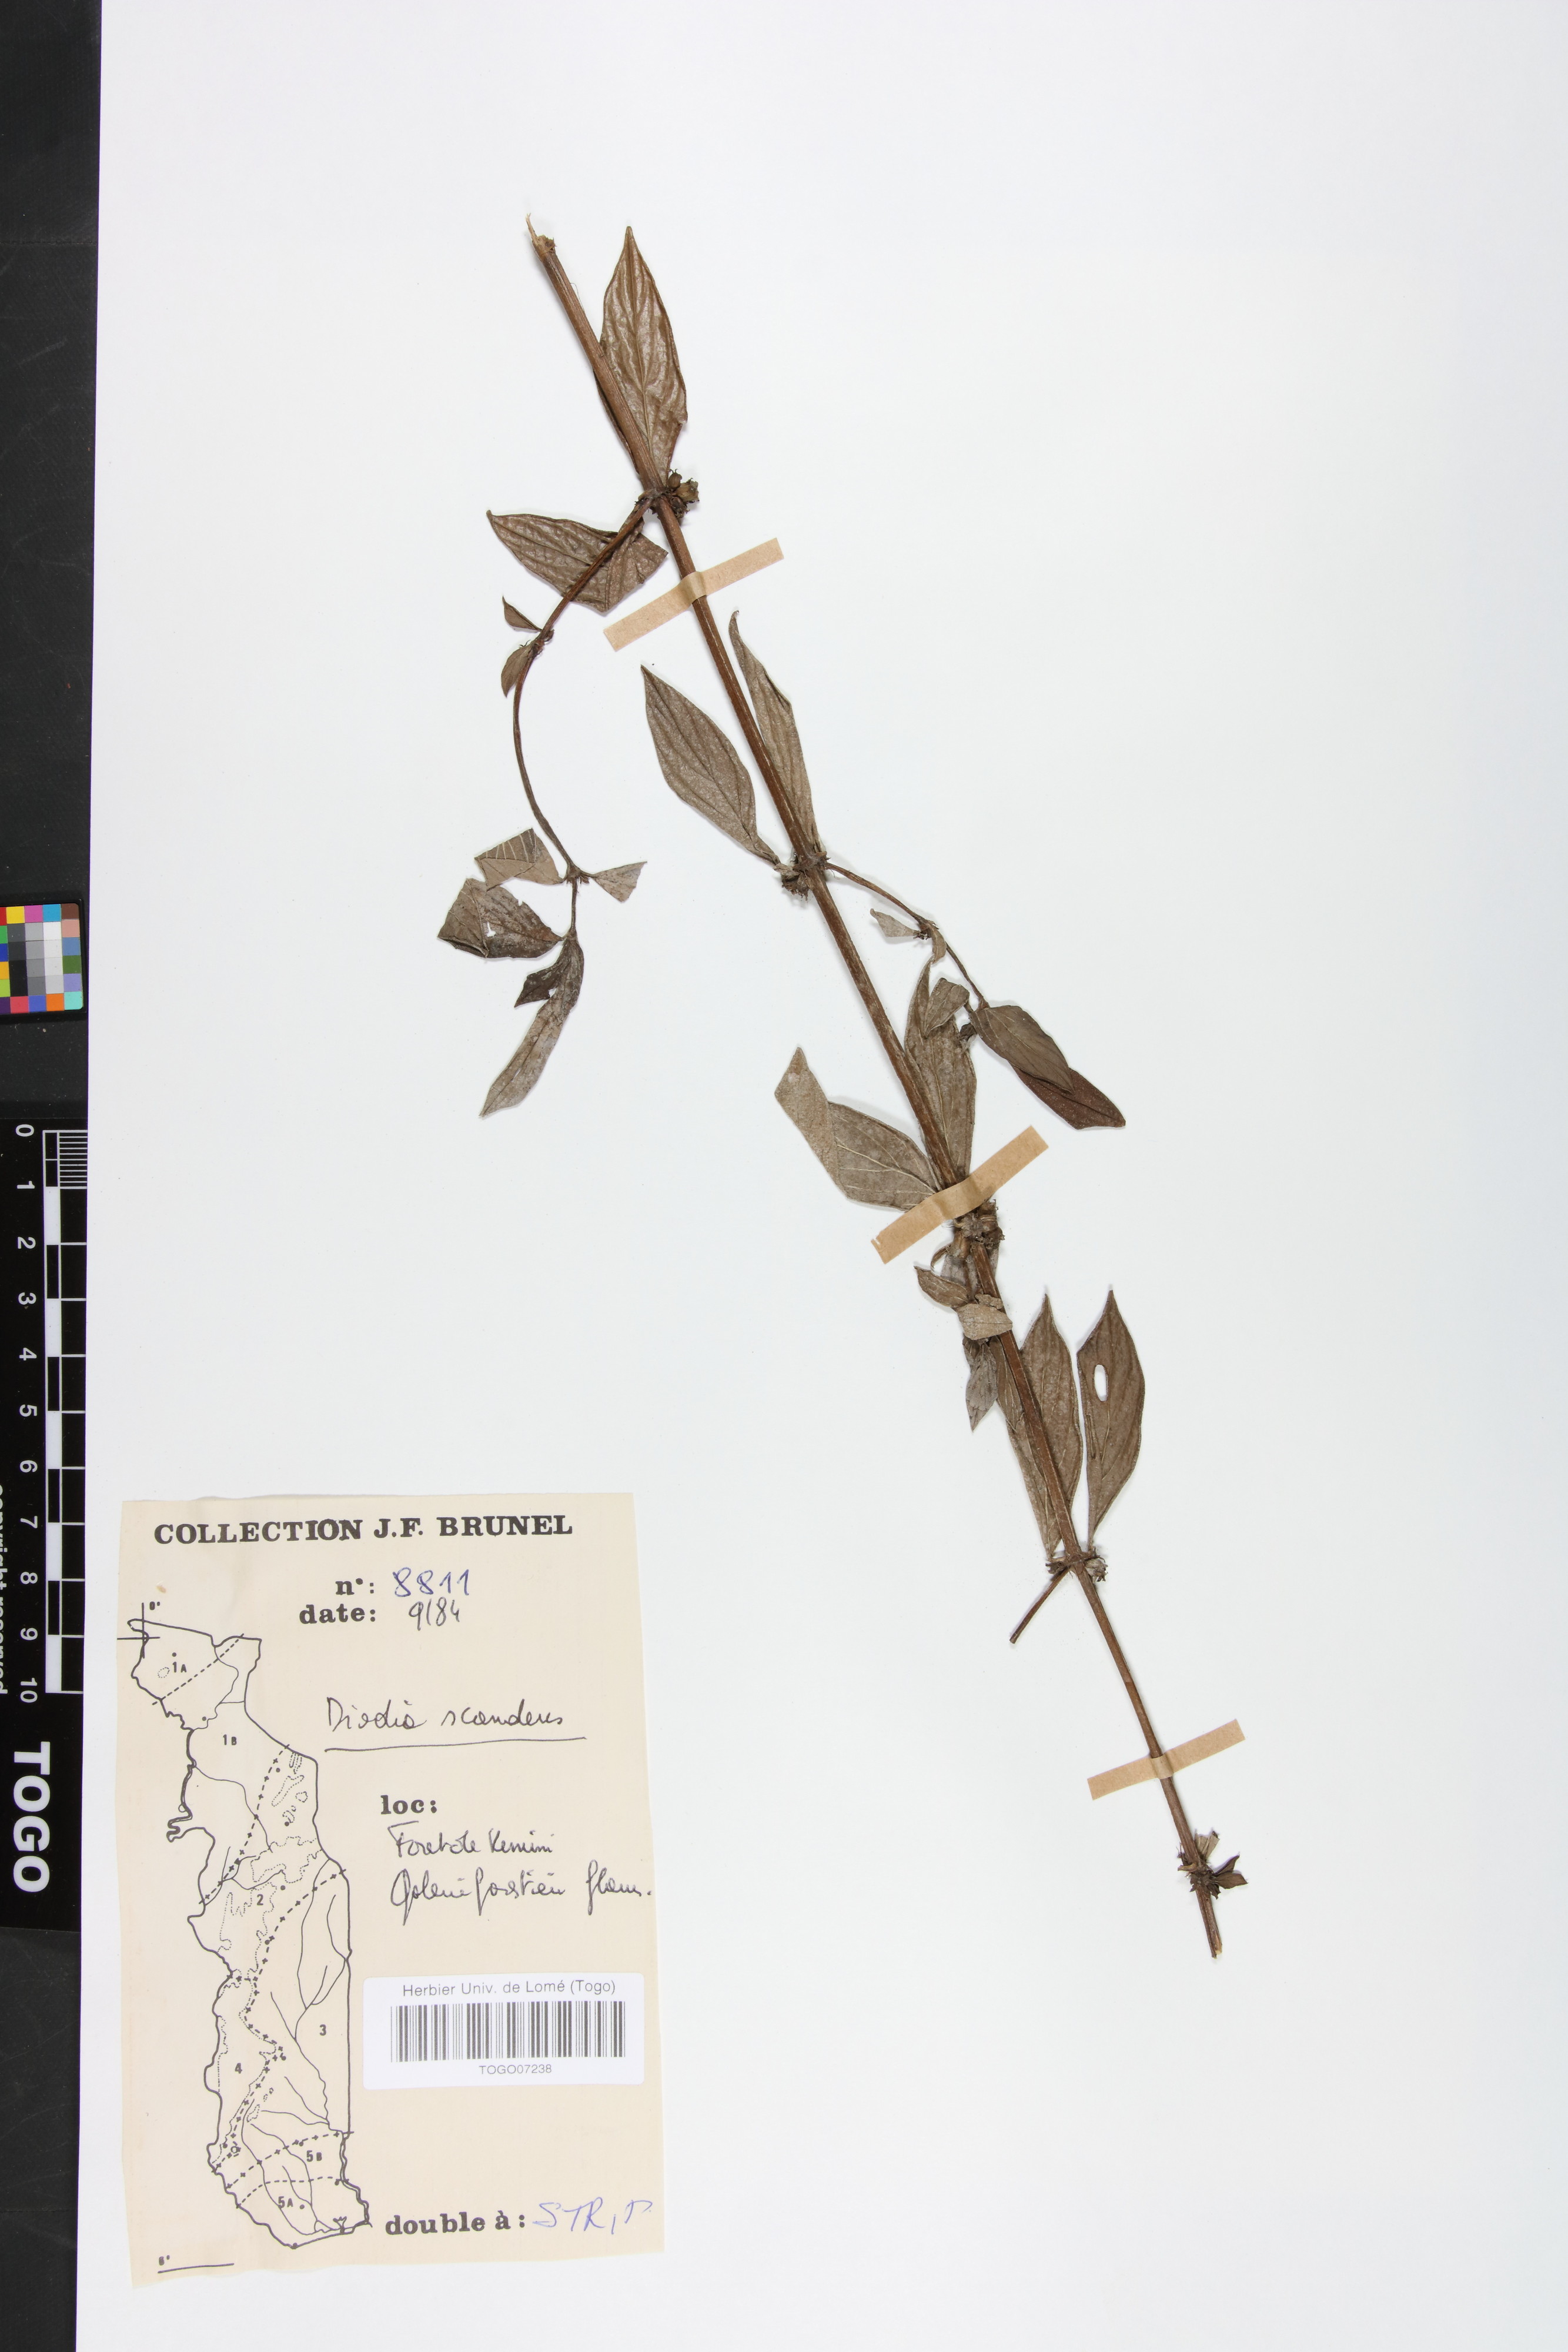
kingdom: Plantae
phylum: Tracheophyta
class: Magnoliopsida
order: Gentianales
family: Rubiaceae
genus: Hexasepalum
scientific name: Hexasepalum scandens
